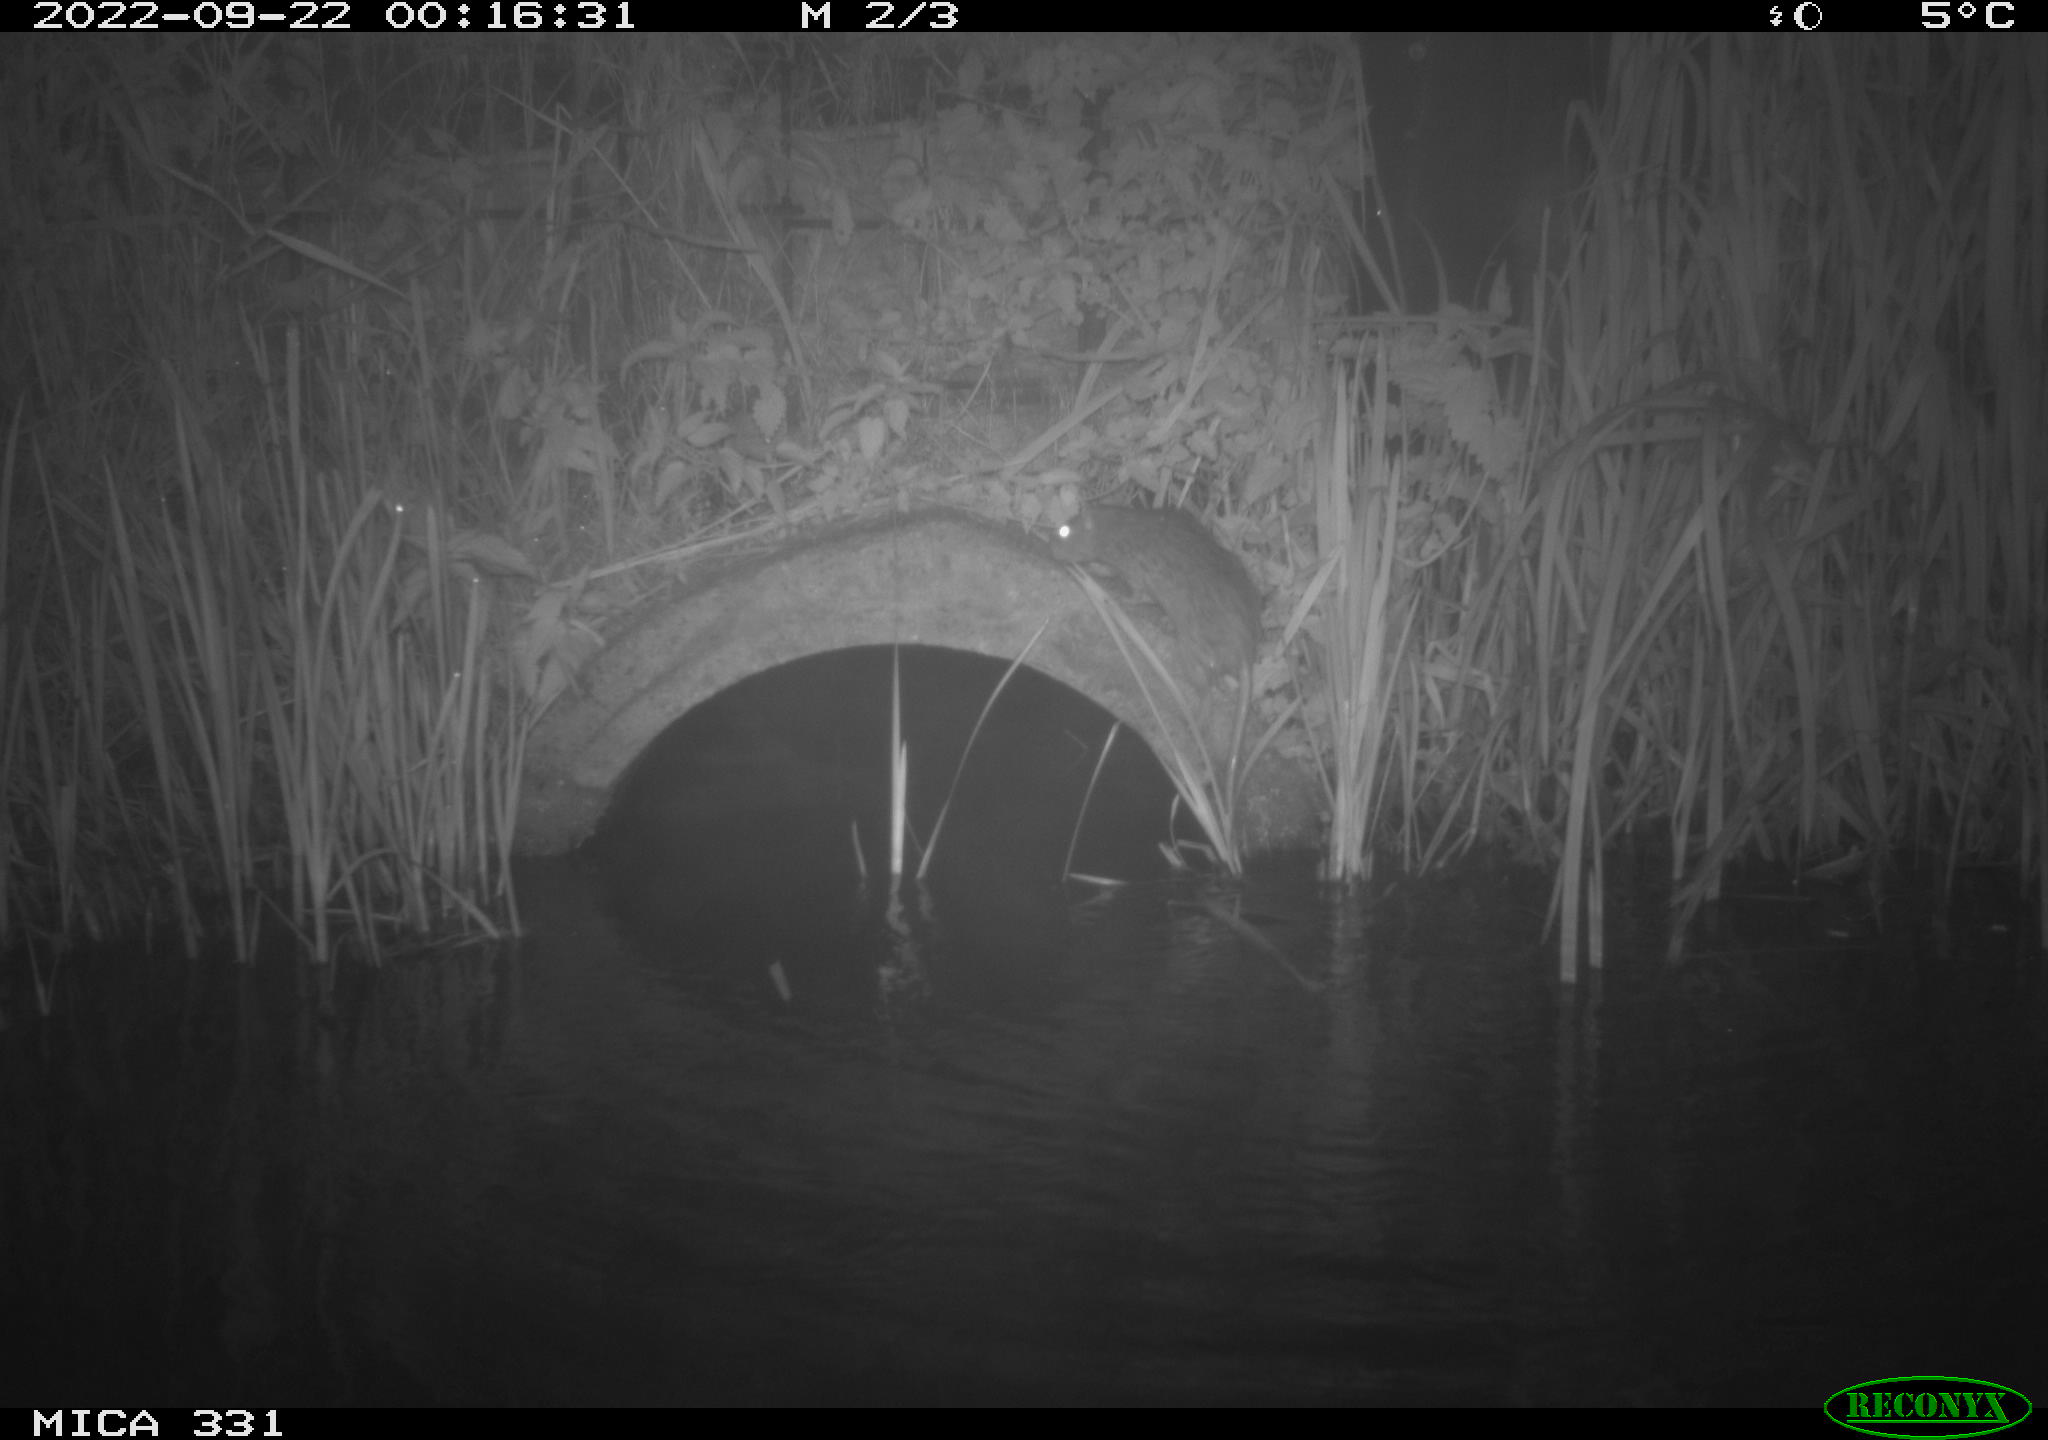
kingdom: Animalia
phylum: Chordata
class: Mammalia
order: Rodentia
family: Muridae
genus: Rattus
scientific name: Rattus norvegicus
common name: Brown rat
